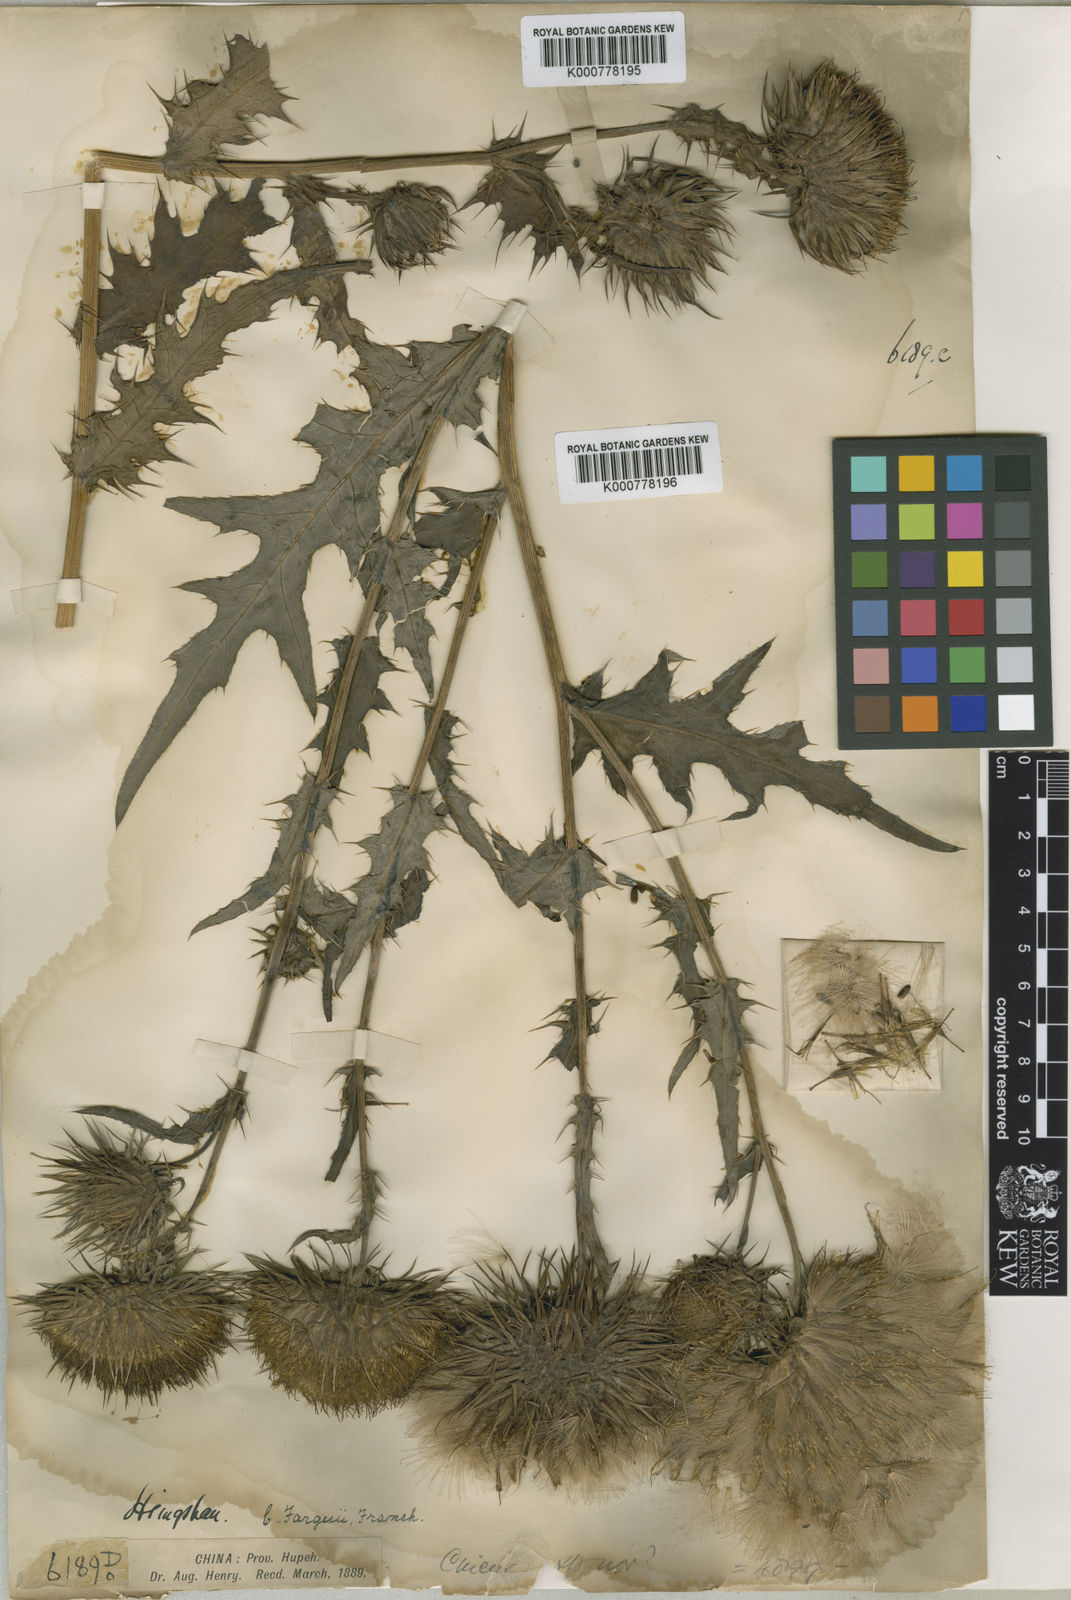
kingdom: Plantae
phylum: Tracheophyta
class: Magnoliopsida
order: Asterales
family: Asteraceae
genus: Cirsium
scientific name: Cirsium fargesii
